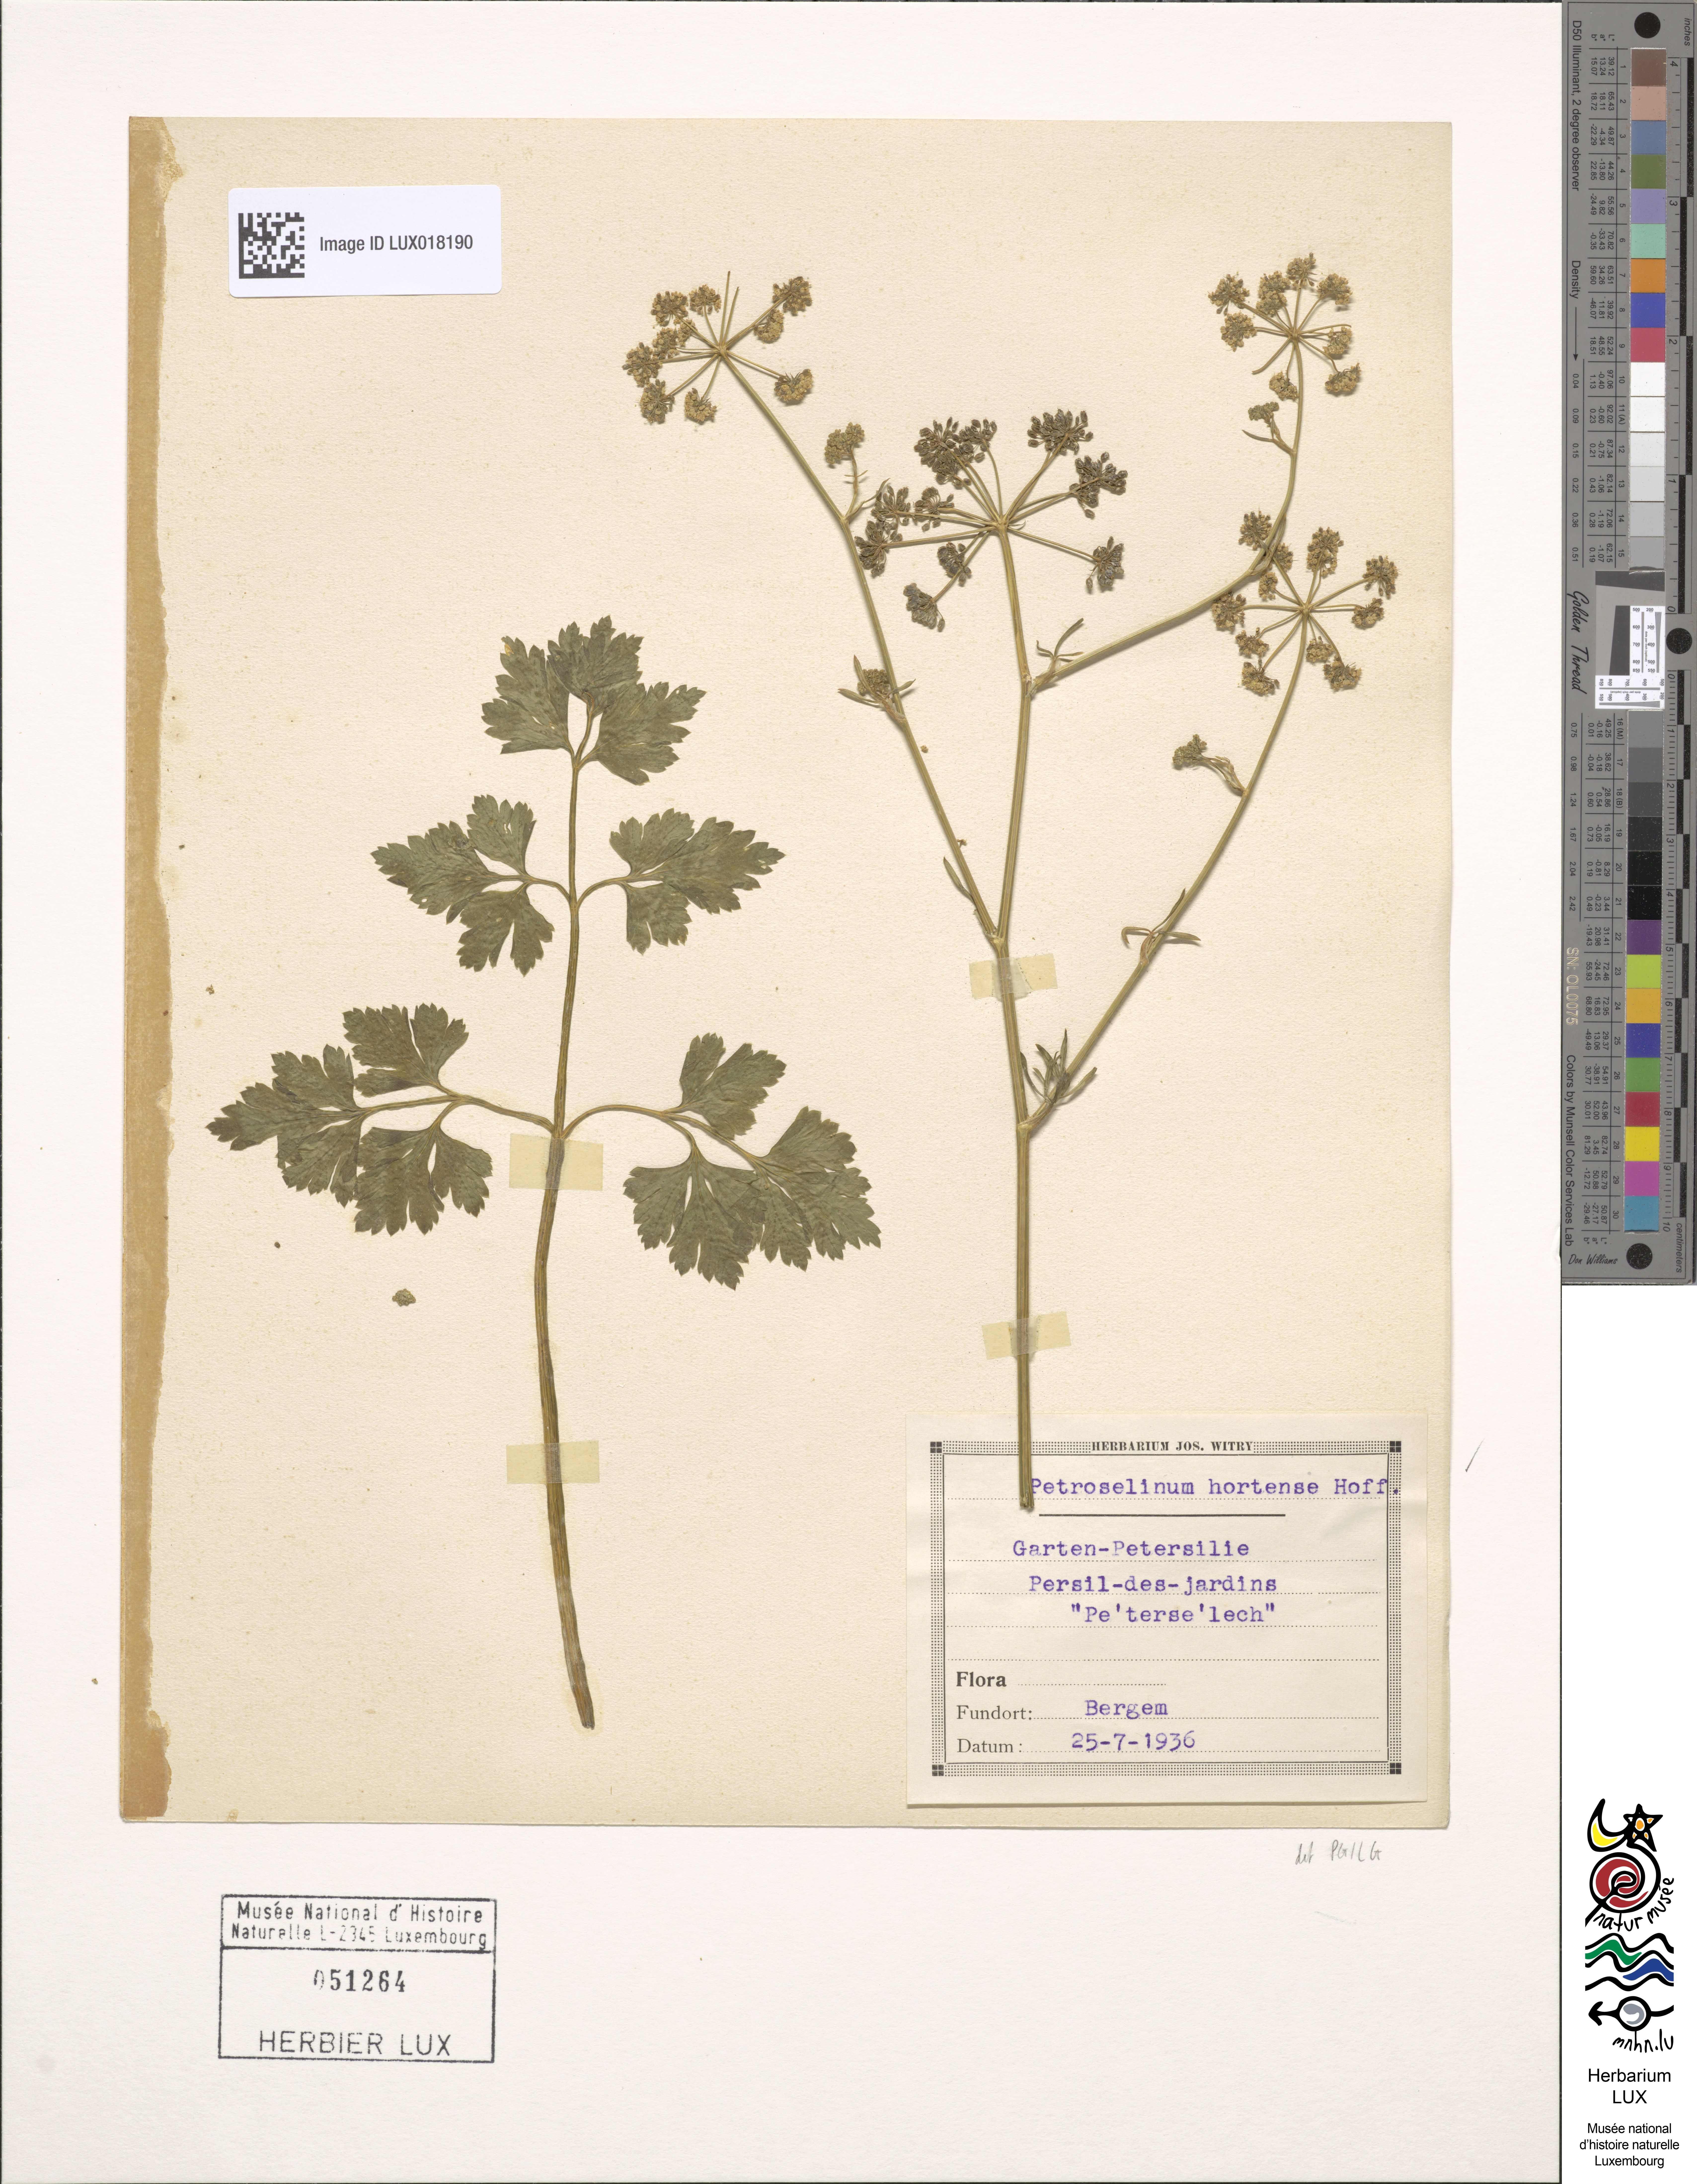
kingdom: Plantae
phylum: Tracheophyta
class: Magnoliopsida
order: Apiales
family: Apiaceae
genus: Petroselinum
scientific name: Petroselinum crispum
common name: Parsley
